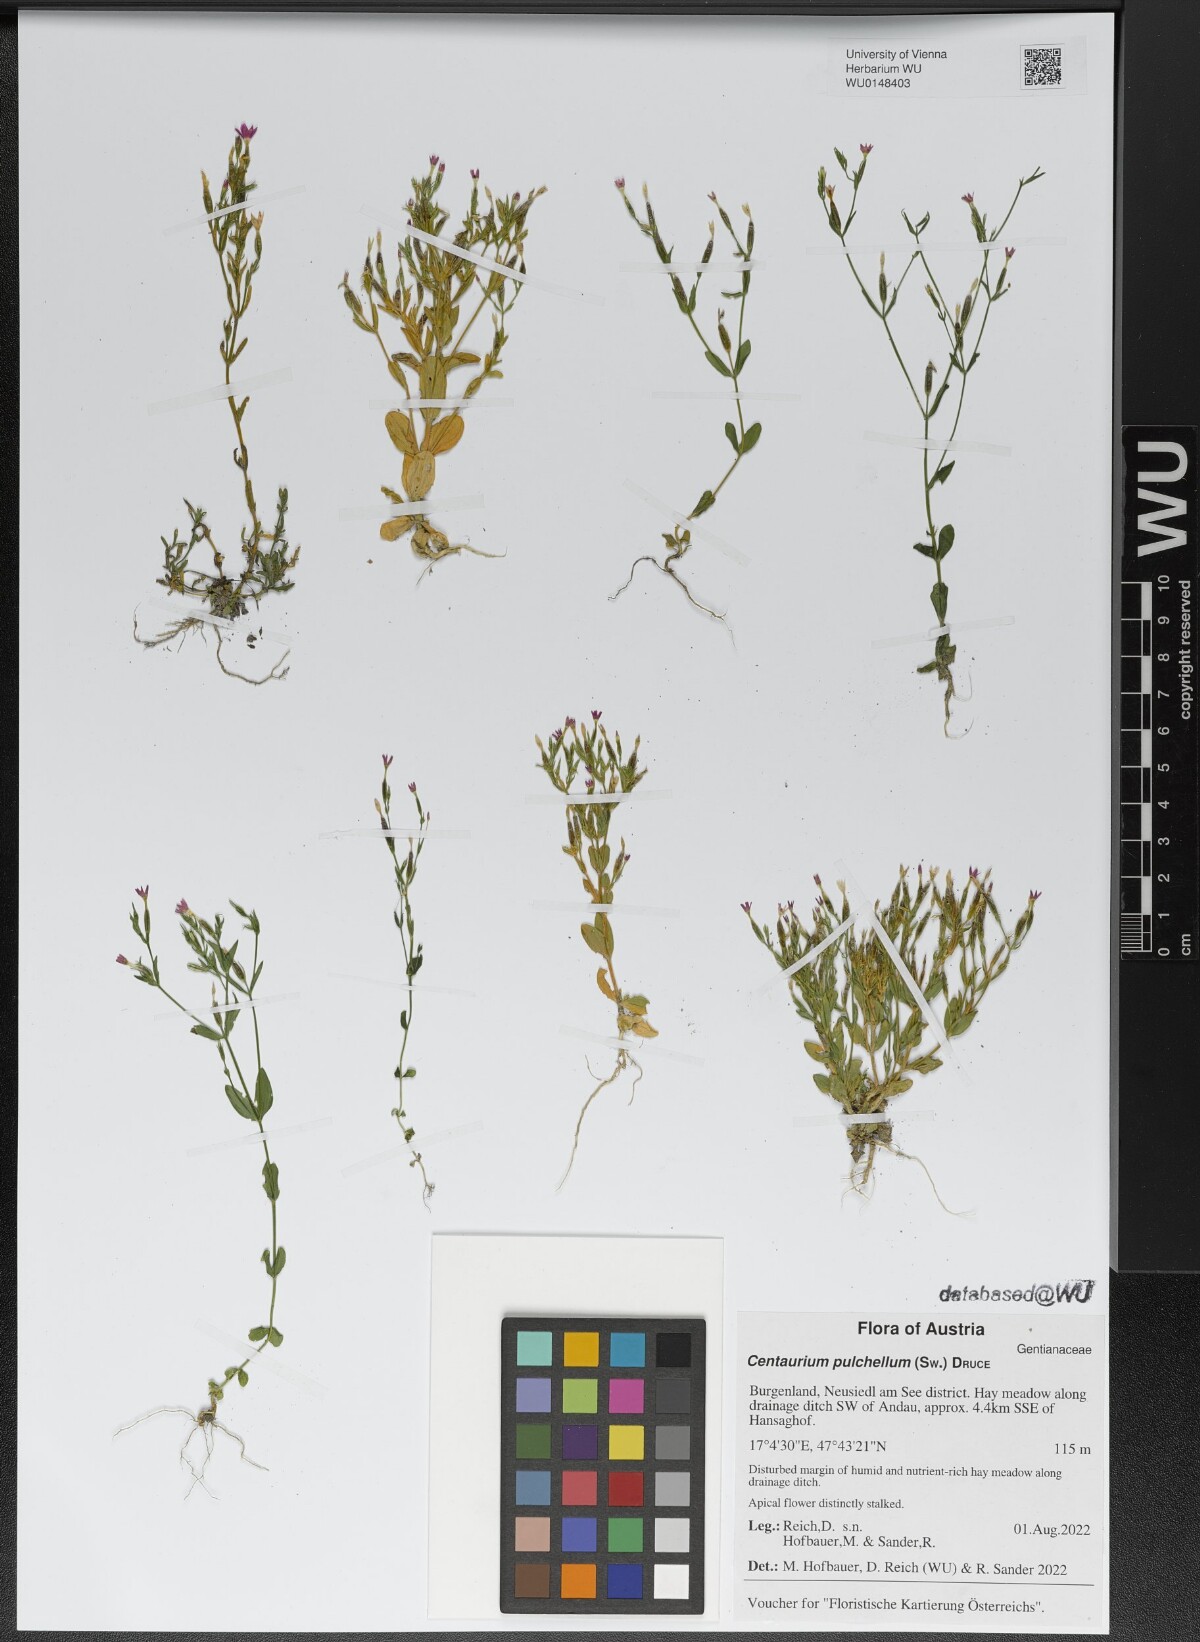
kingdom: Plantae
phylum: Tracheophyta
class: Magnoliopsida
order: Gentianales
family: Gentianaceae
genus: Centaurium
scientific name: Centaurium pulchellum
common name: Lesser centaury
